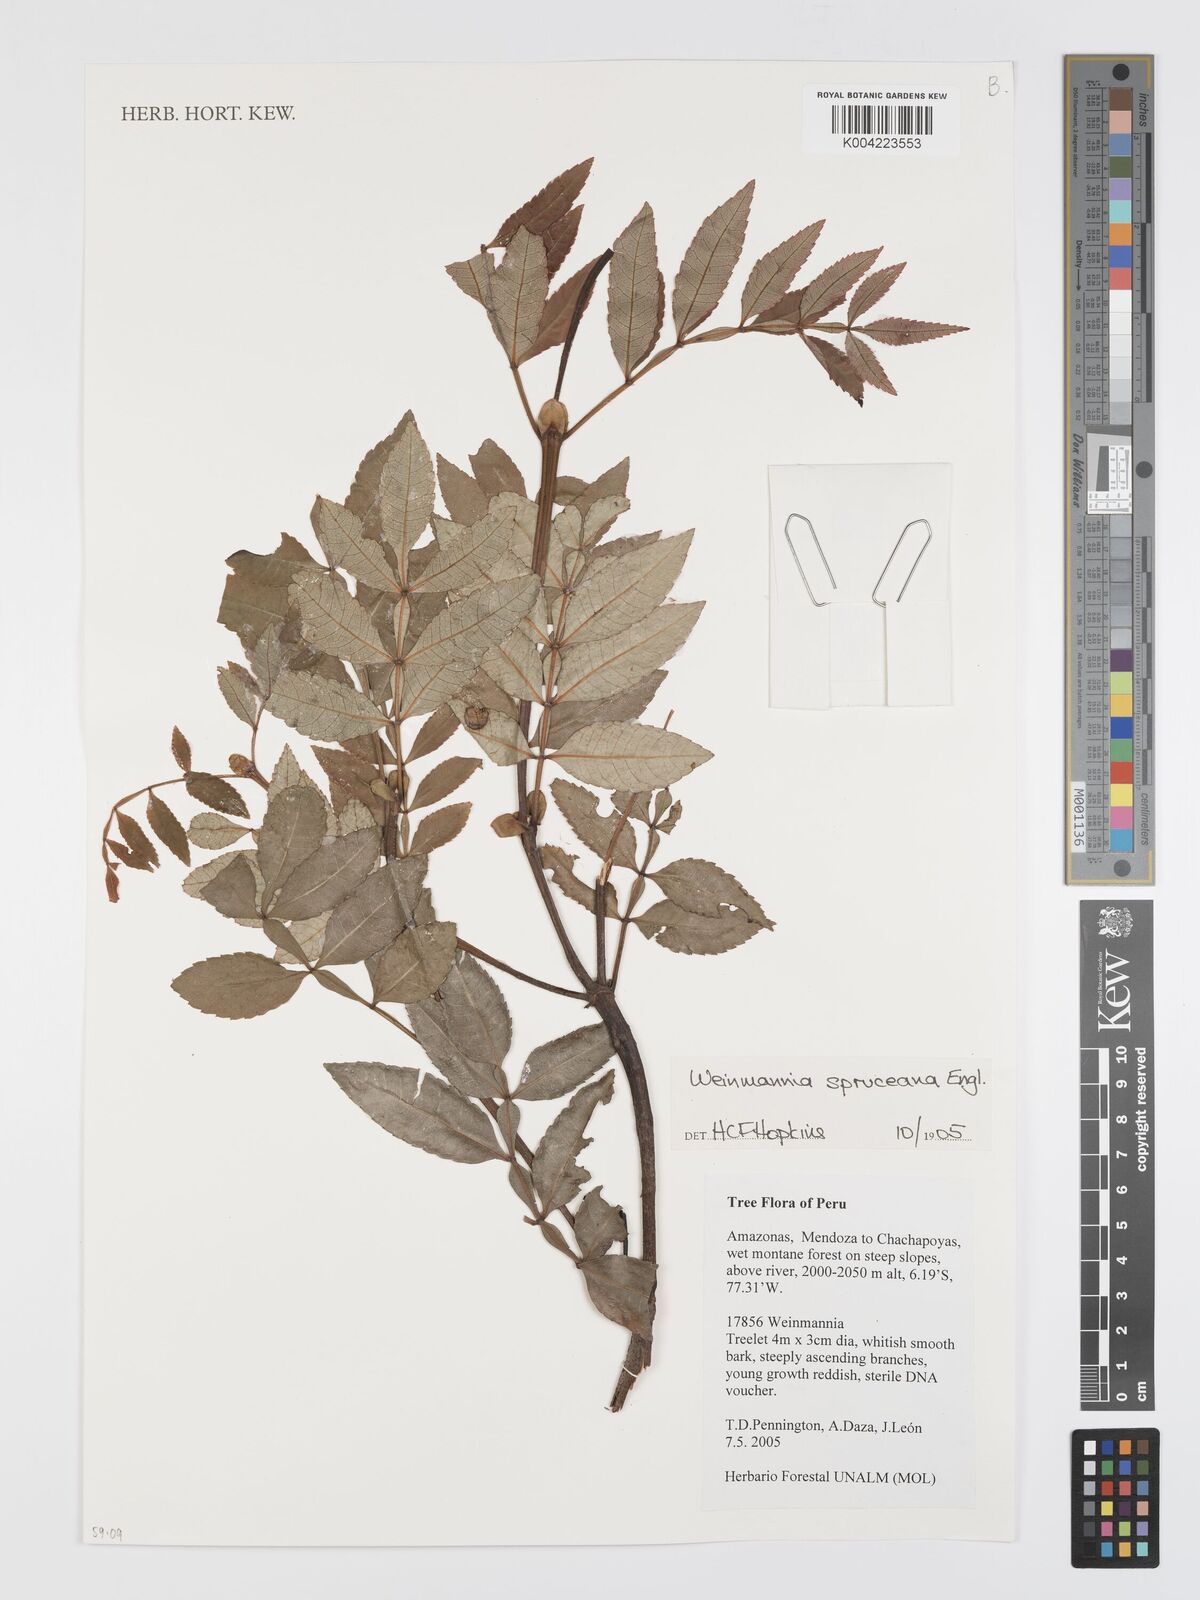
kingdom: Plantae
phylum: Tracheophyta
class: Magnoliopsida
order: Oxalidales
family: Cunoniaceae
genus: Weinmannia
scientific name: Weinmannia spruceana
